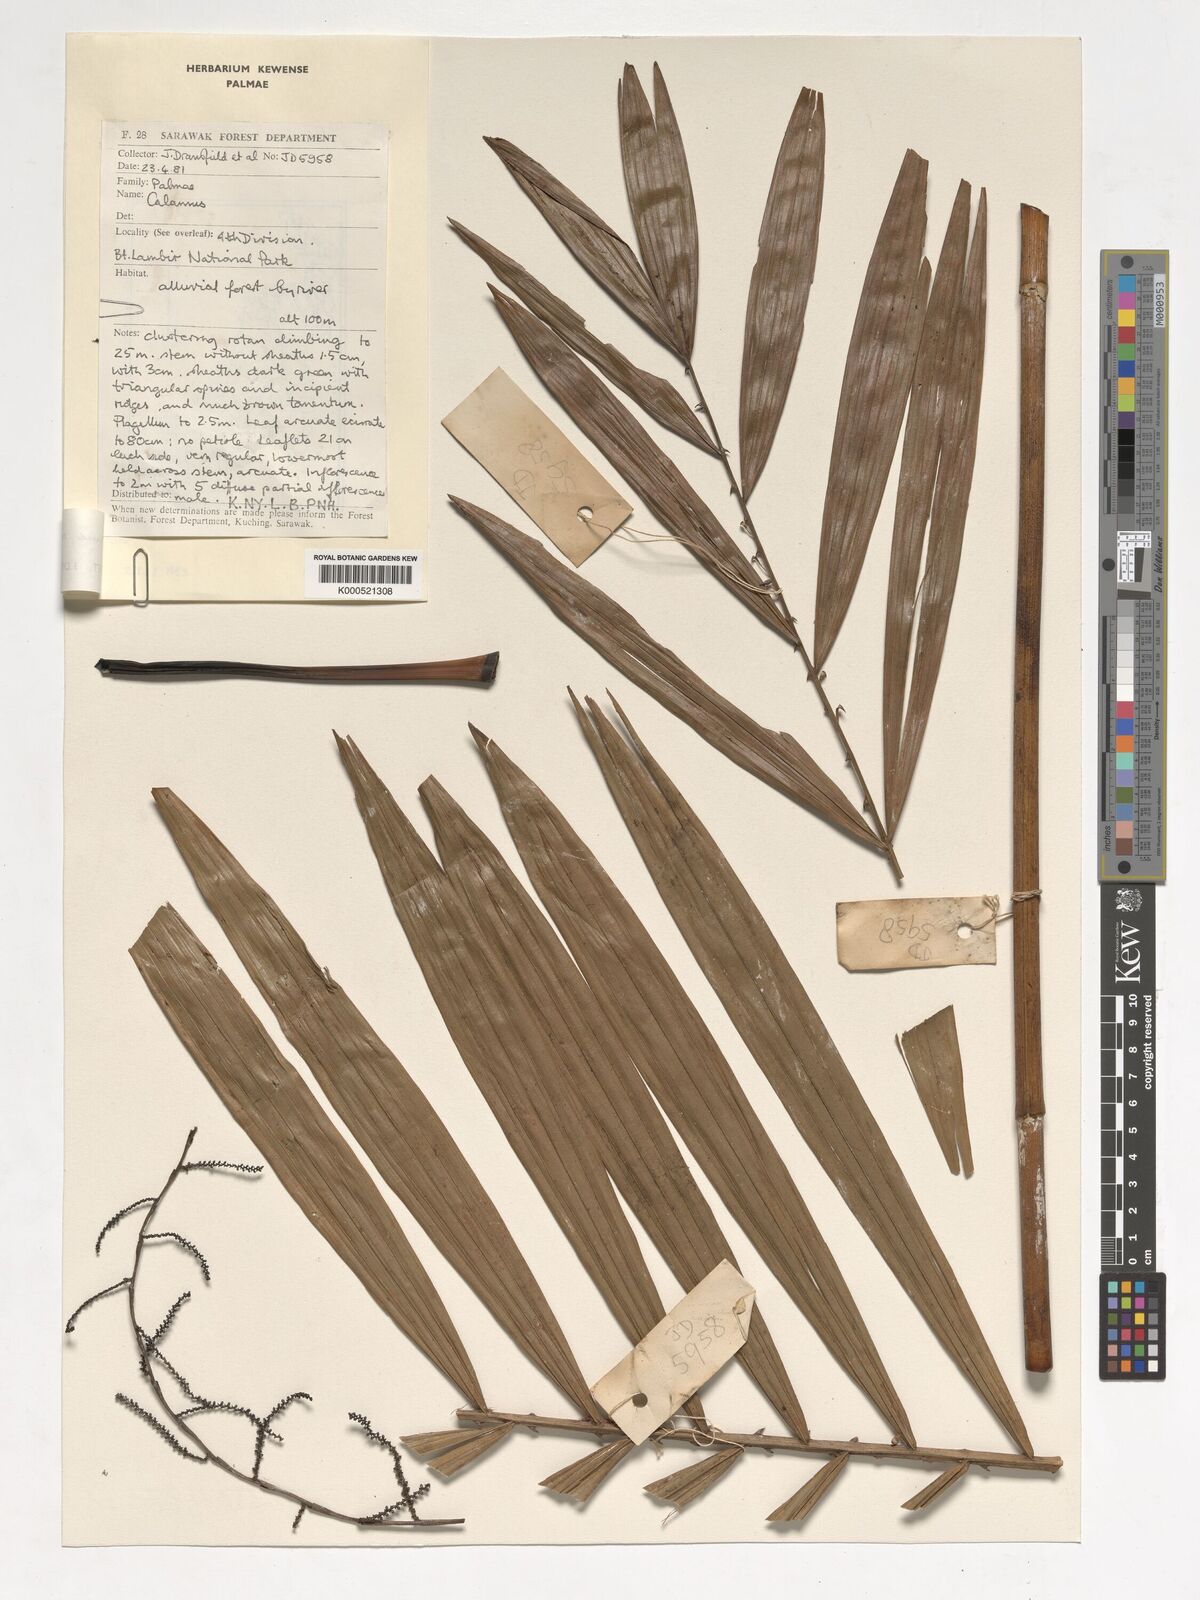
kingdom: Plantae
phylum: Tracheophyta
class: Liliopsida
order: Arecales
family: Arecaceae
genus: Calamus
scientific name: Calamus ruvidus
